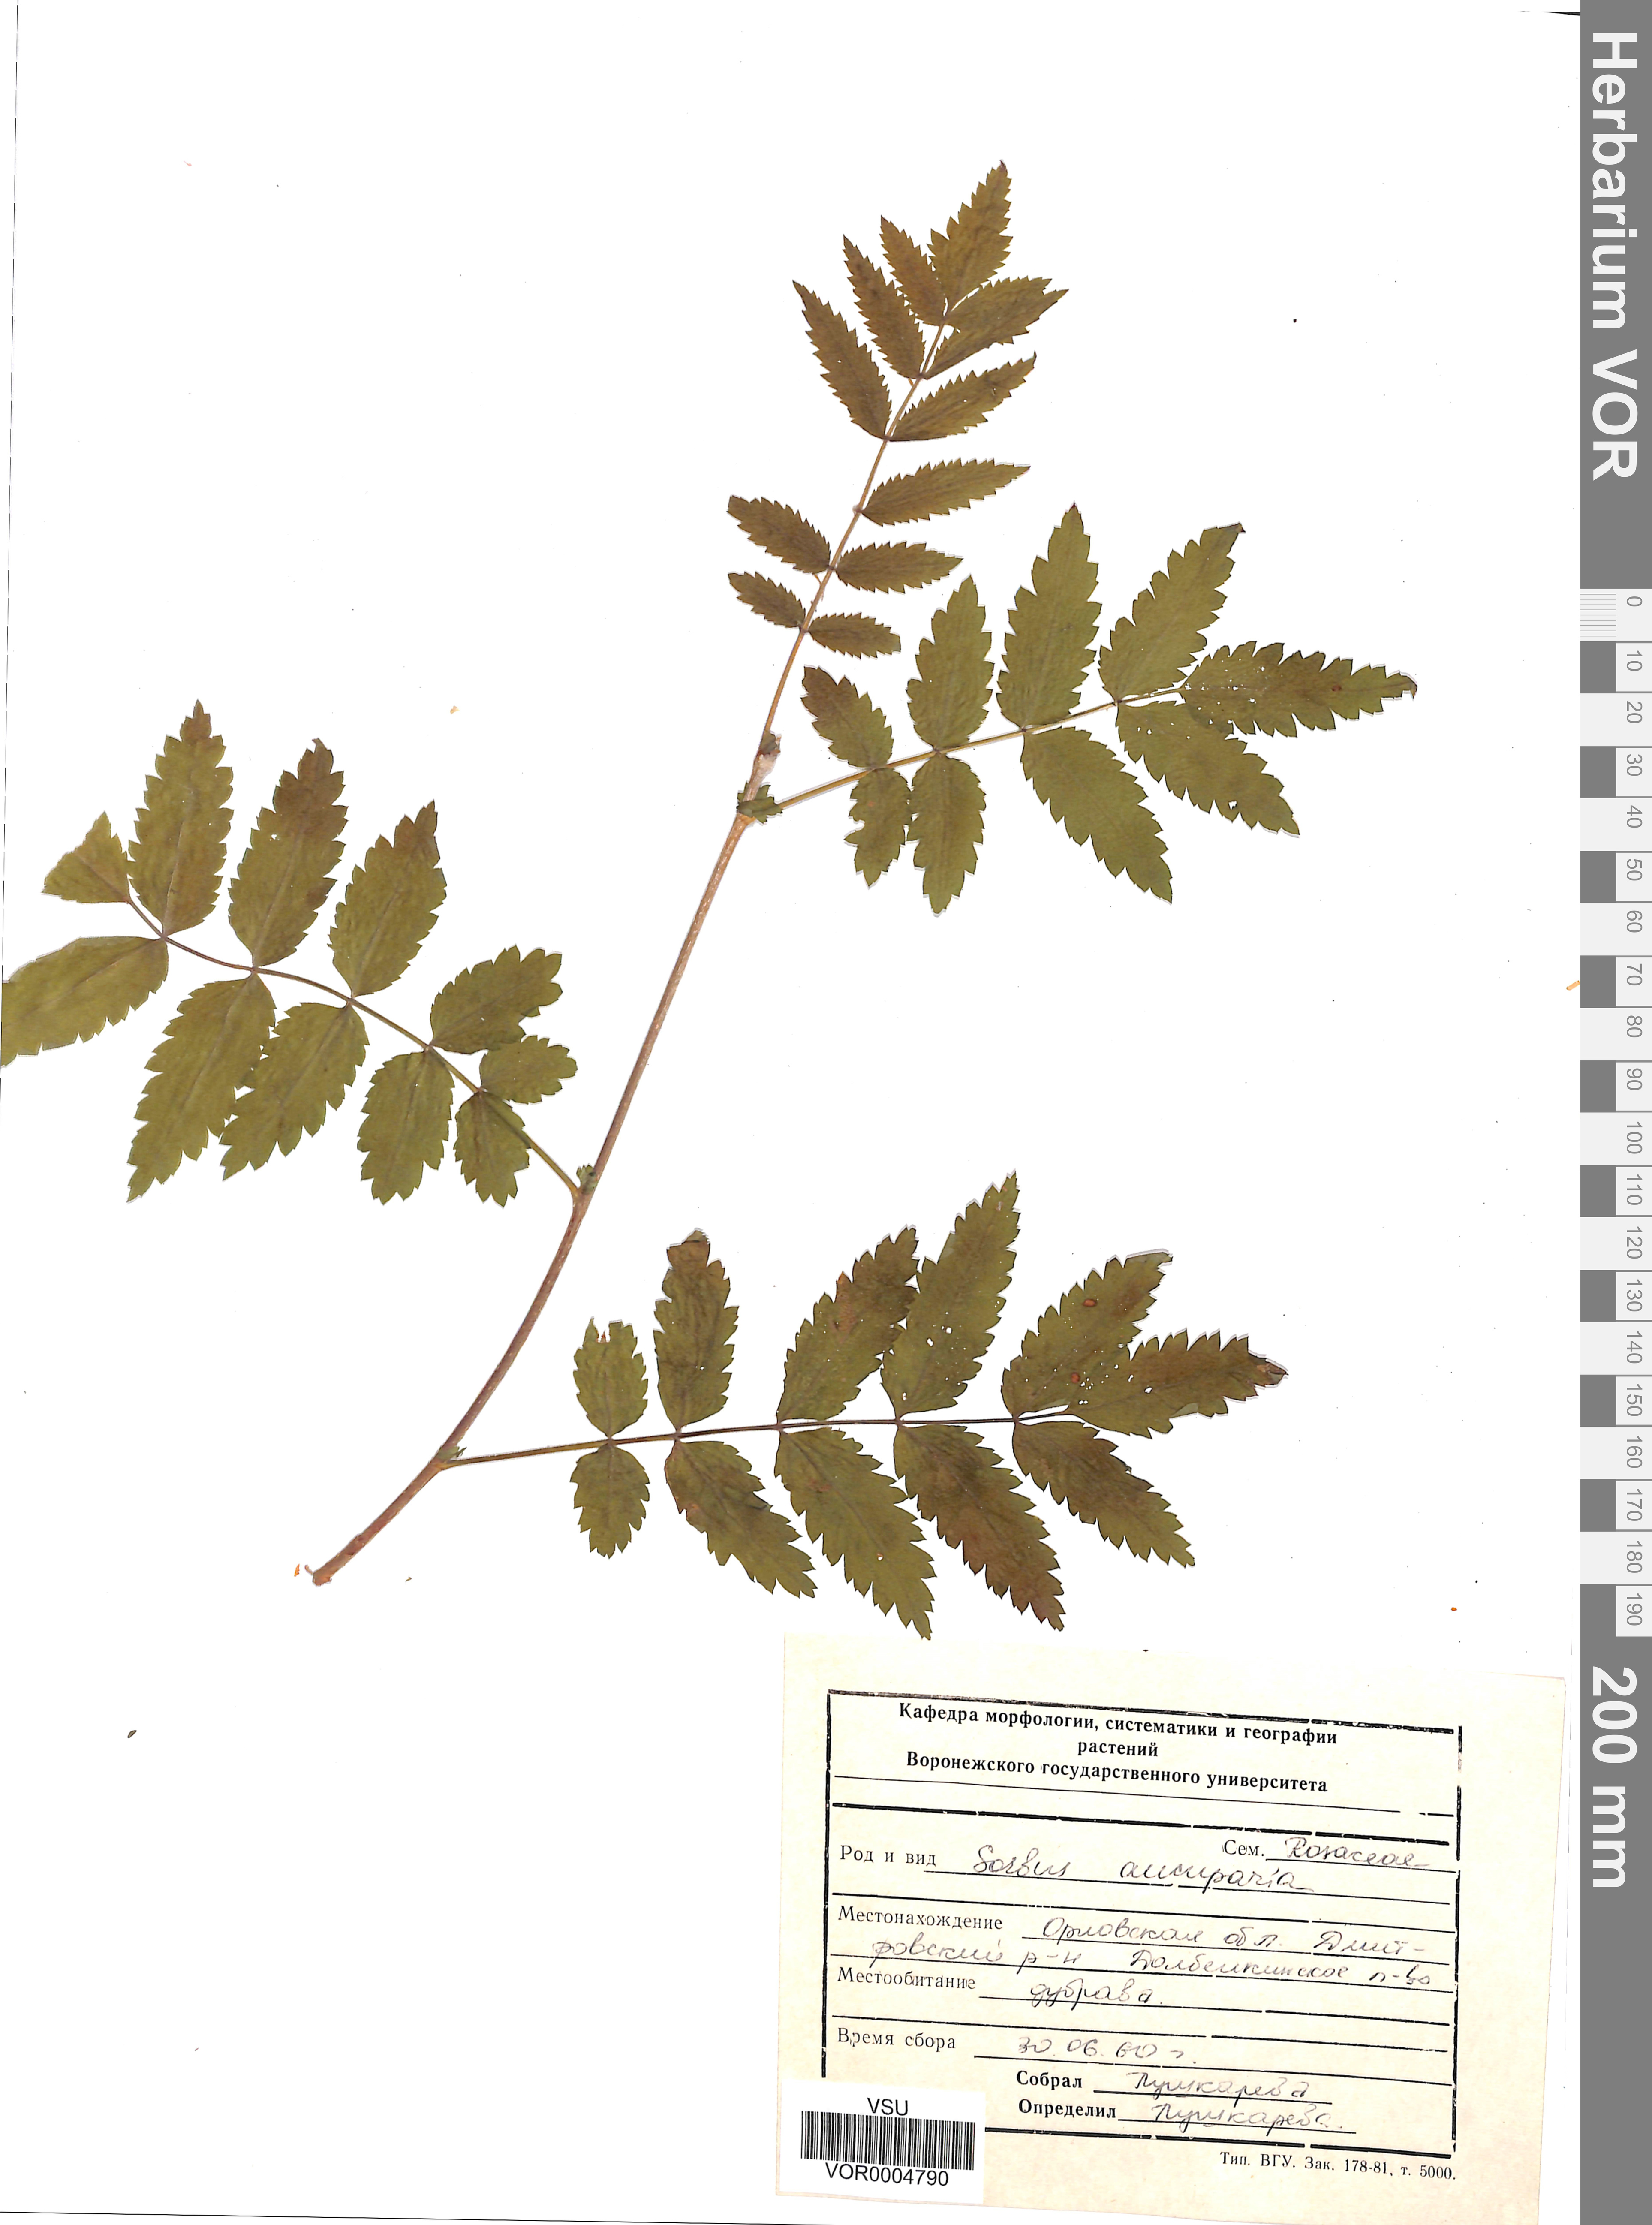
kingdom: Plantae
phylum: Tracheophyta
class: Magnoliopsida
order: Rosales
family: Rosaceae
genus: Sorbus
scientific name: Sorbus aucuparia
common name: Rowan
